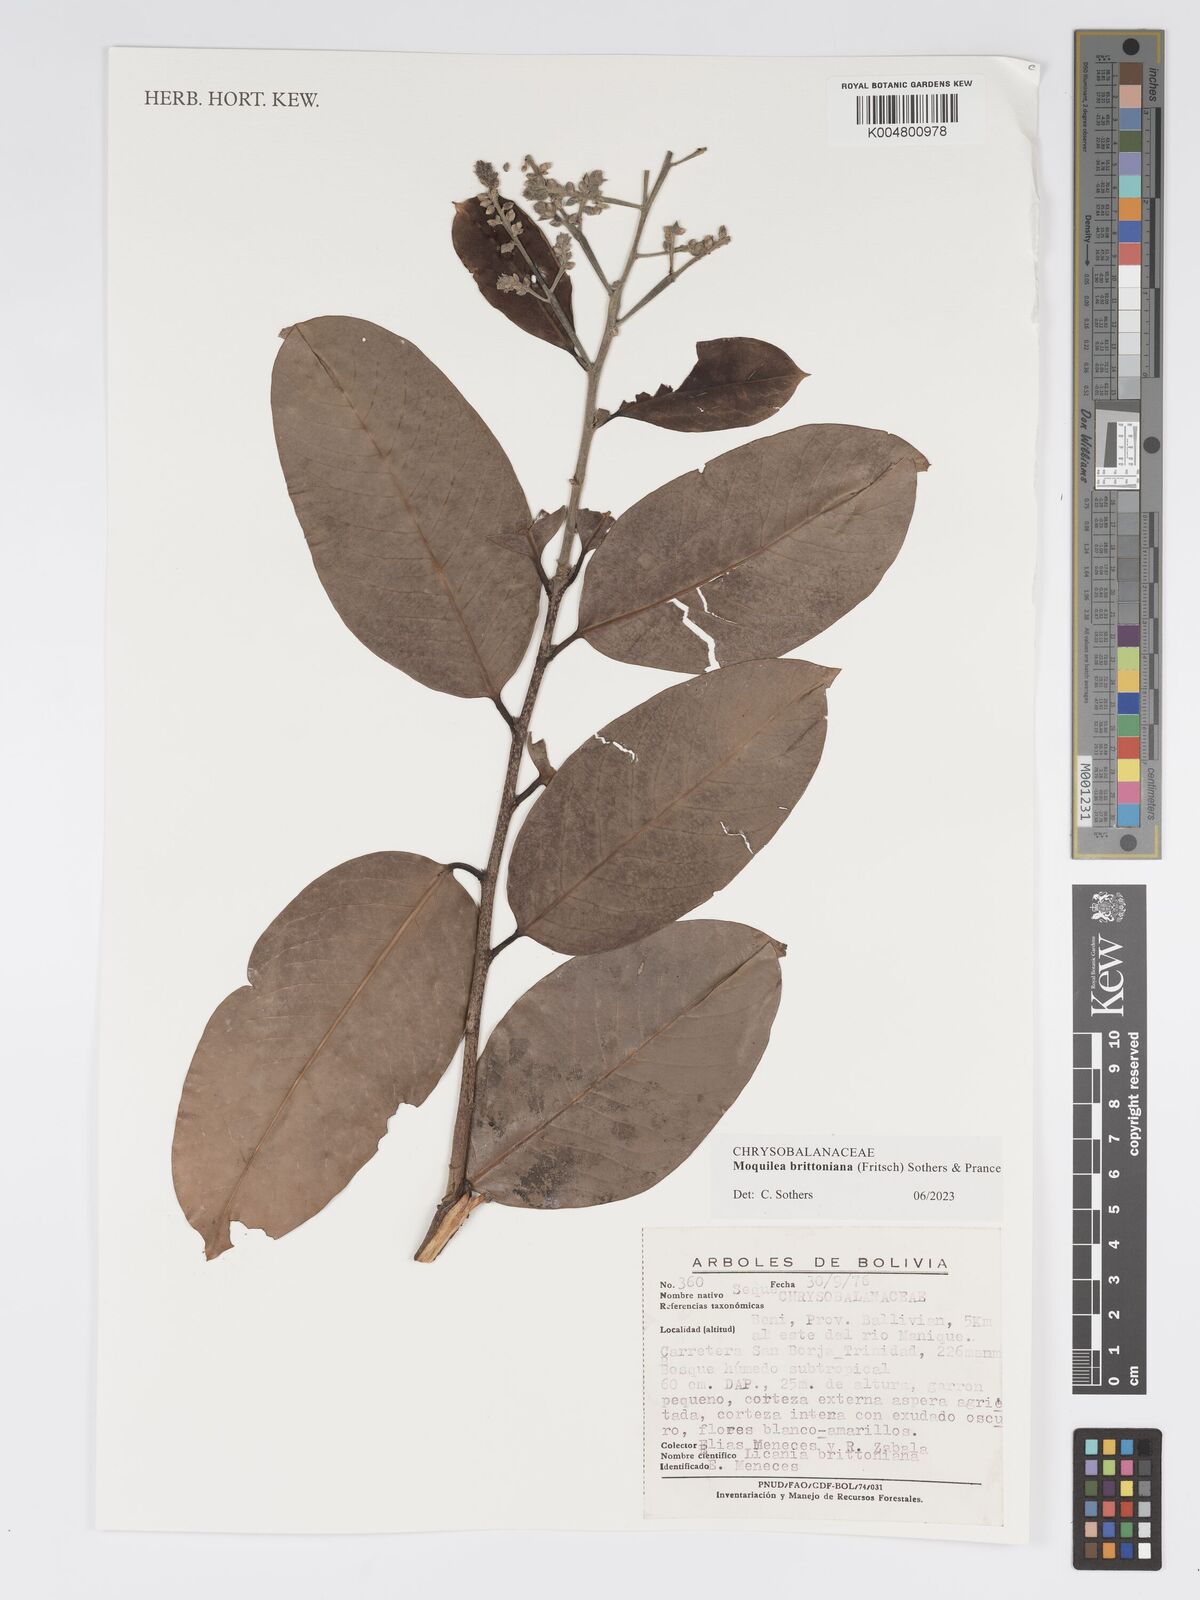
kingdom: Plantae
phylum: Tracheophyta
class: Magnoliopsida
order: Malpighiales
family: Chrysobalanaceae
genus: Moquilea
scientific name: Moquilea brittoniana
